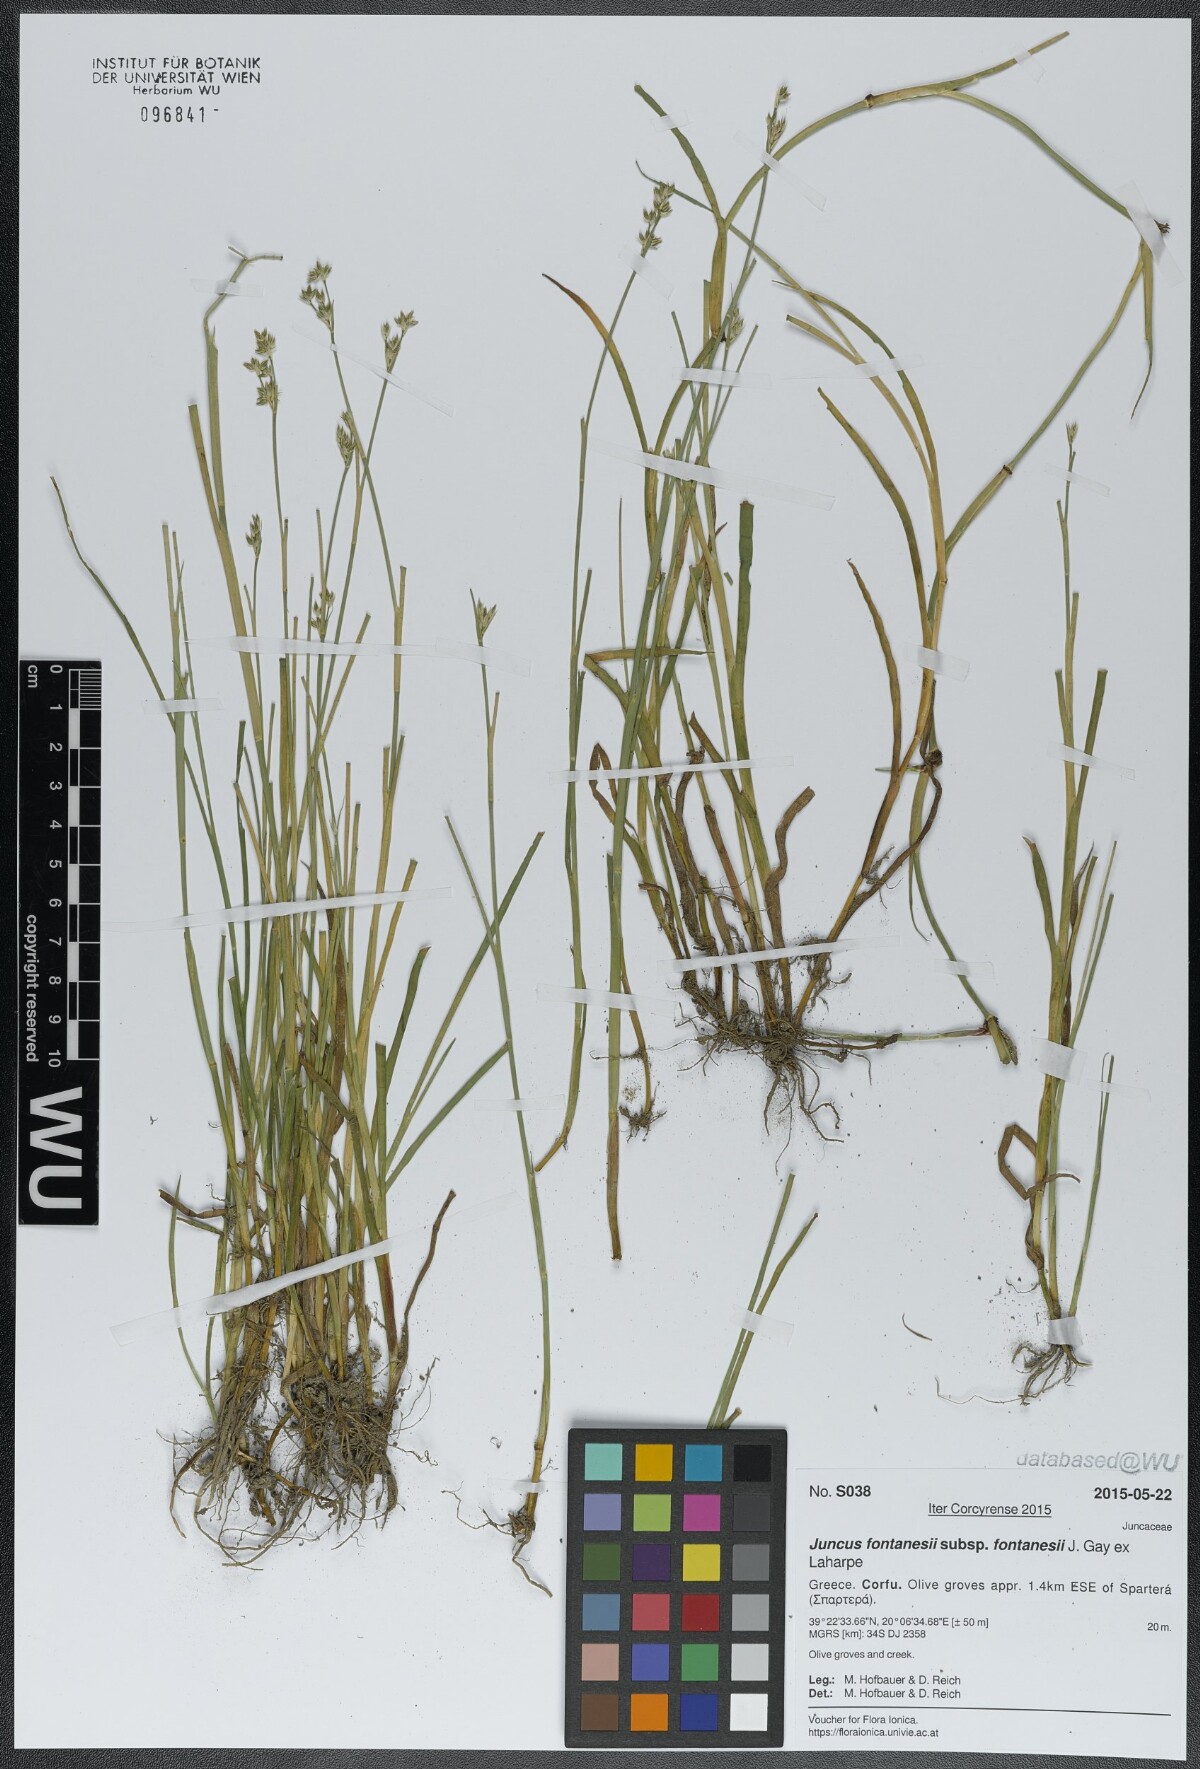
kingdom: Plantae
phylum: Tracheophyta
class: Liliopsida
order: Poales
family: Juncaceae
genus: Juncus
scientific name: Juncus fontanesii
